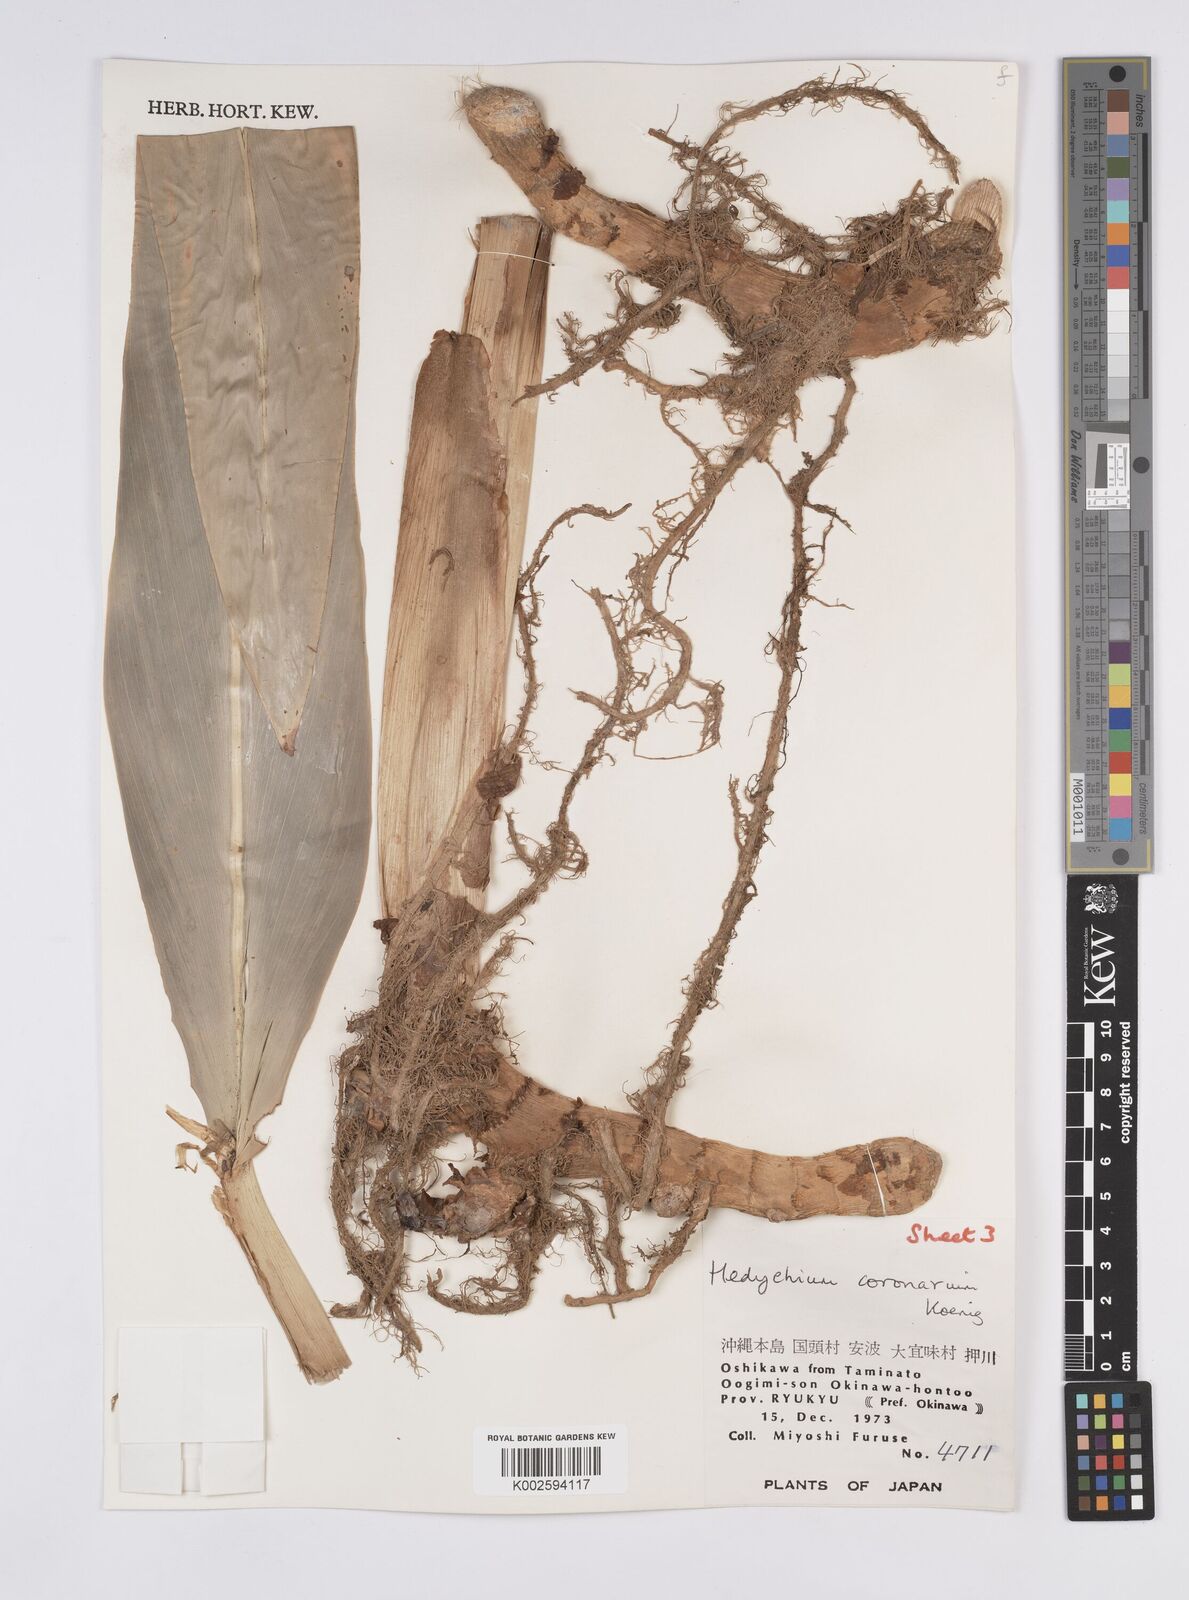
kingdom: Plantae
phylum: Tracheophyta
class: Liliopsida
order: Zingiberales
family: Zingiberaceae
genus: Hedychium
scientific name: Hedychium coronarium
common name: White garland-lily
